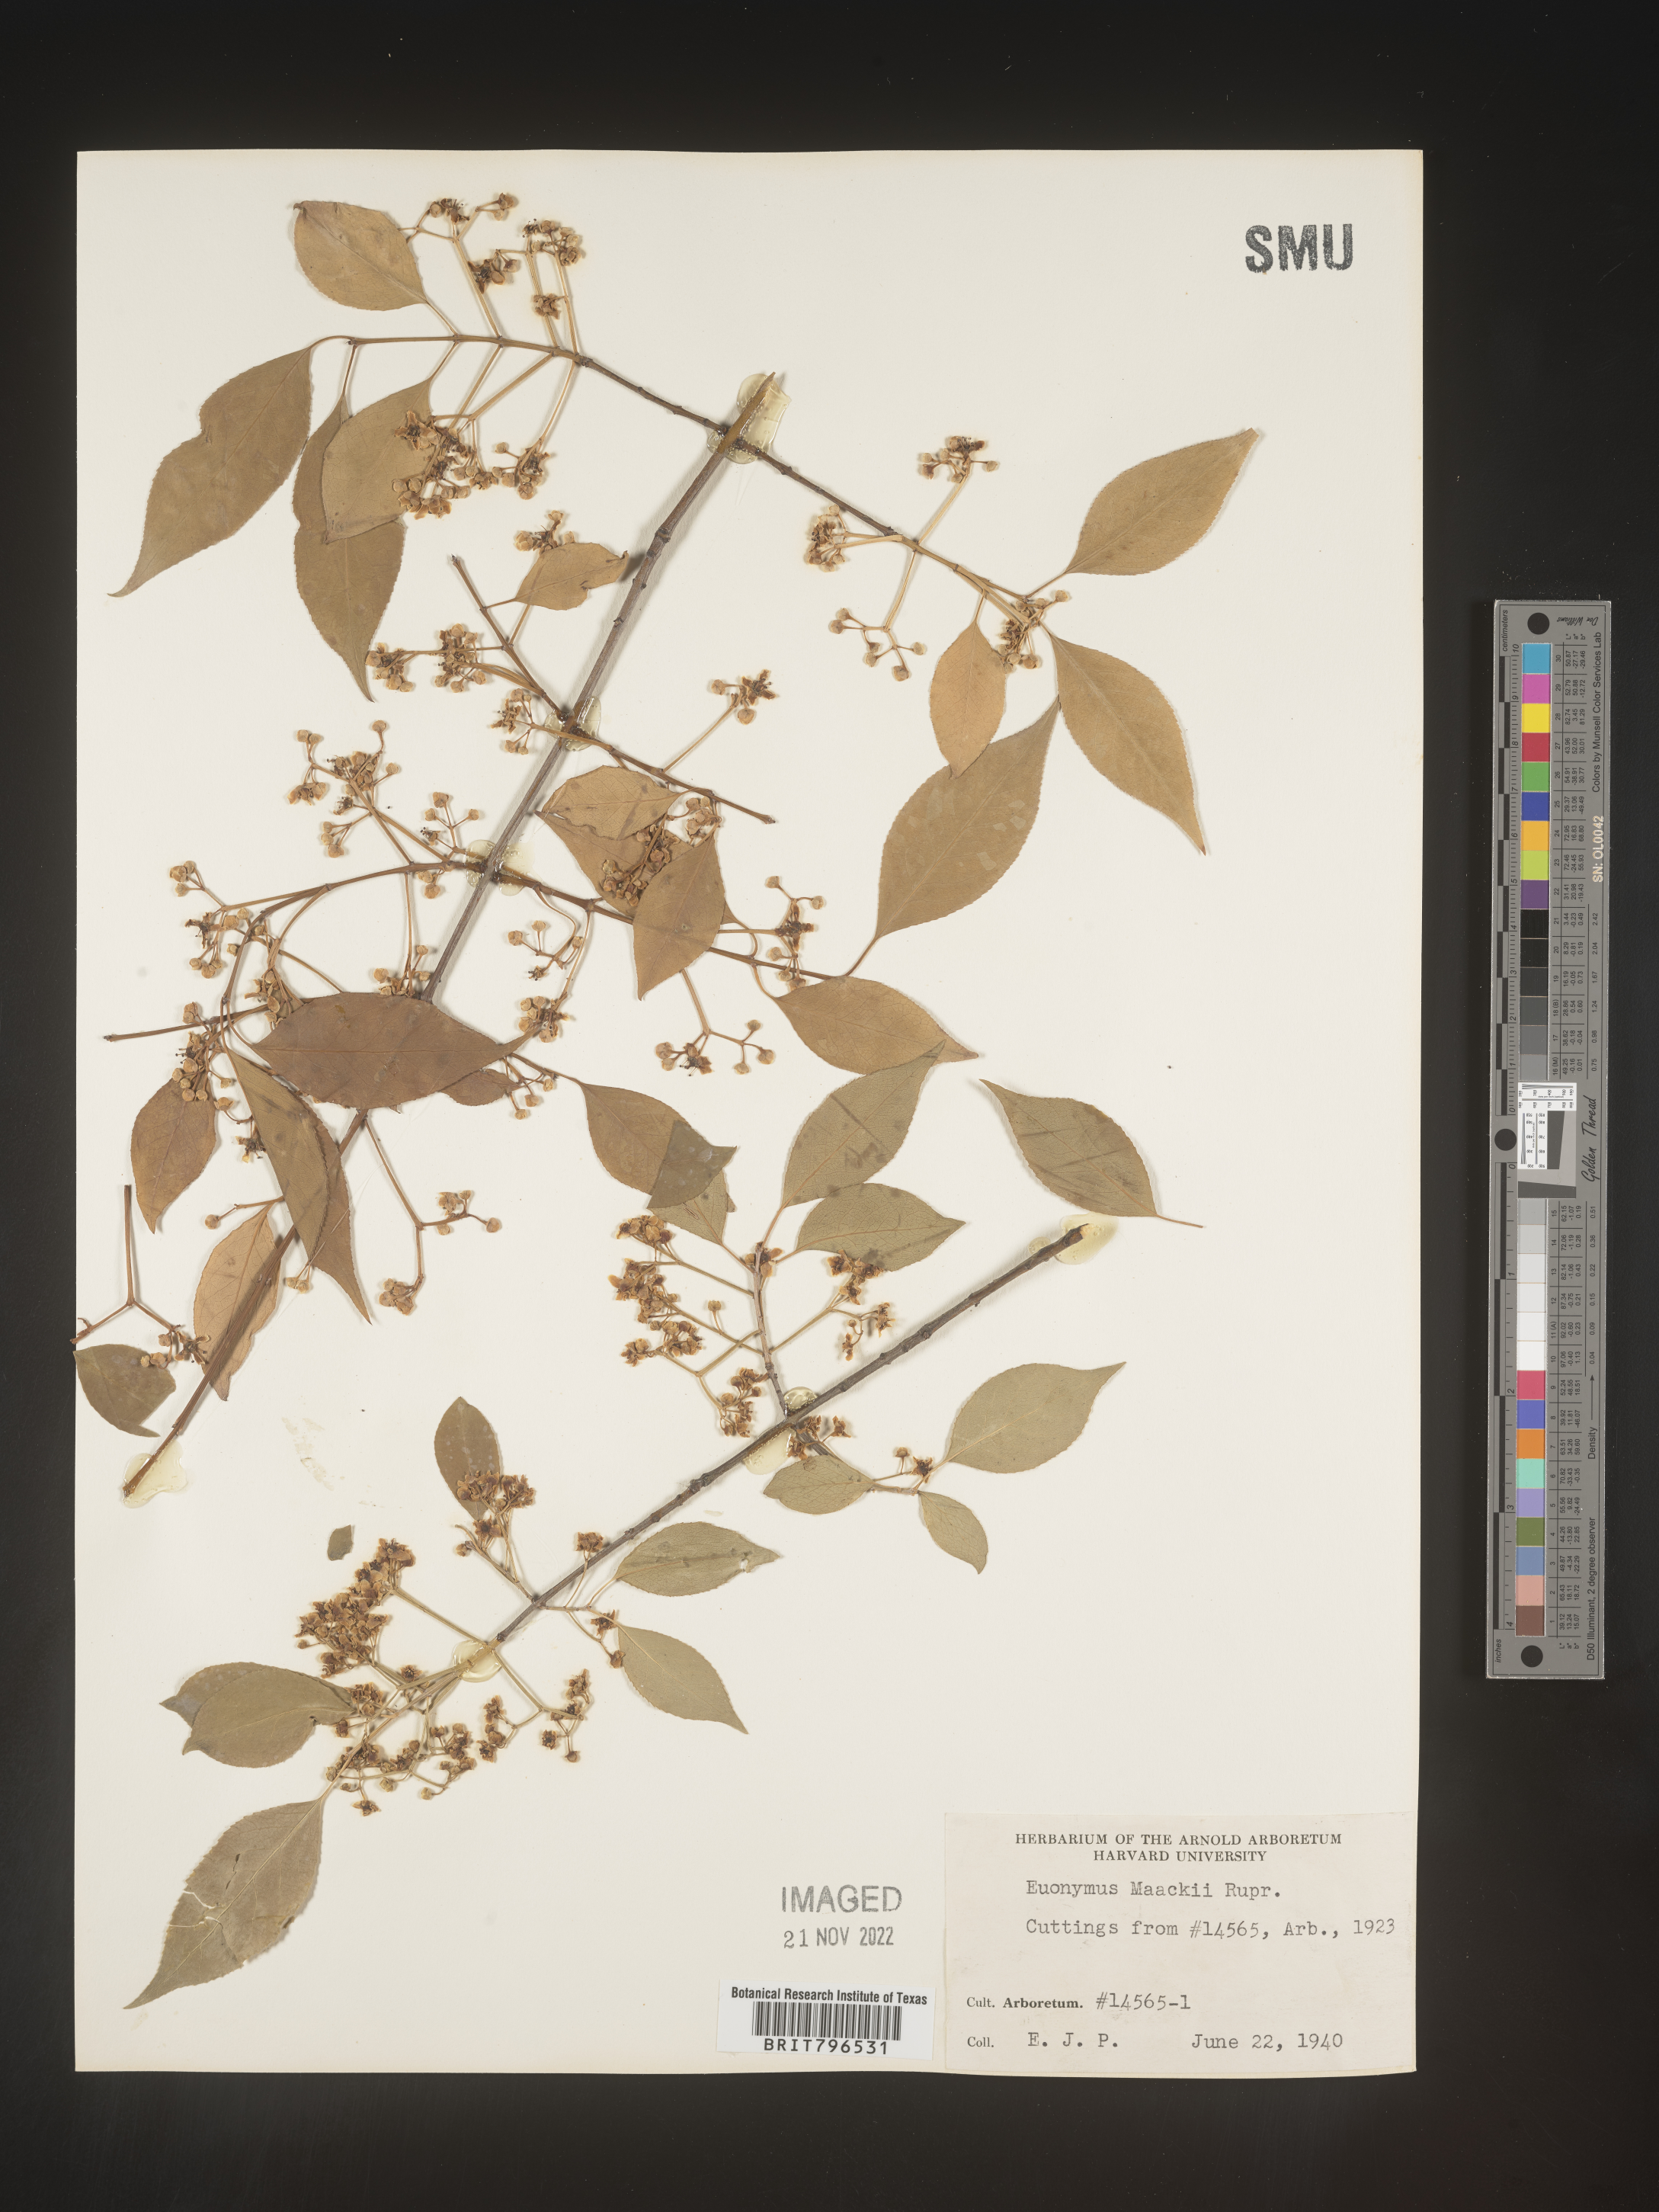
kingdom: Plantae
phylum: Tracheophyta
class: Magnoliopsida
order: Celastrales
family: Celastraceae
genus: Euonymus
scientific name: Euonymus
